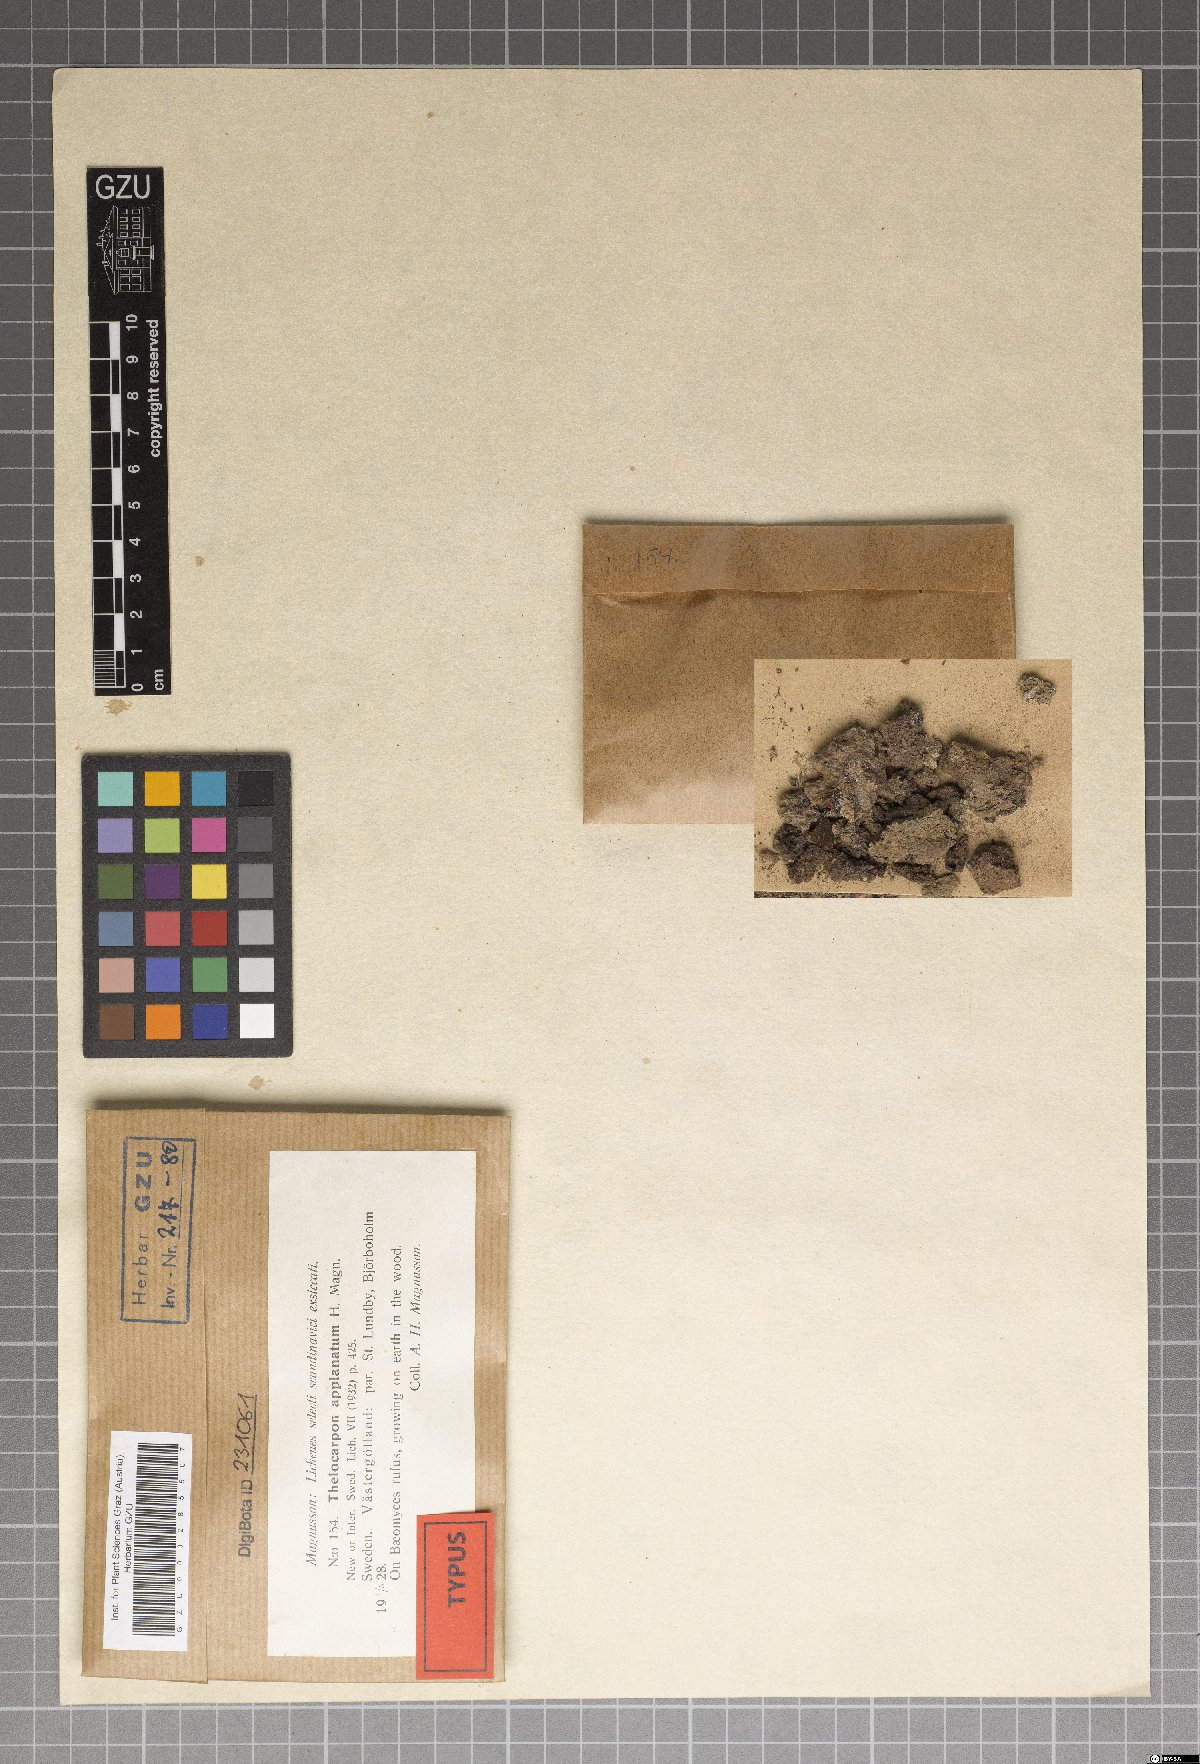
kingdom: Fungi
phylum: Ascomycota
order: Thelocarpales
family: Thelocarpaceae
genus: Thelocarpon
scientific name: Thelocarpon lichenicola
